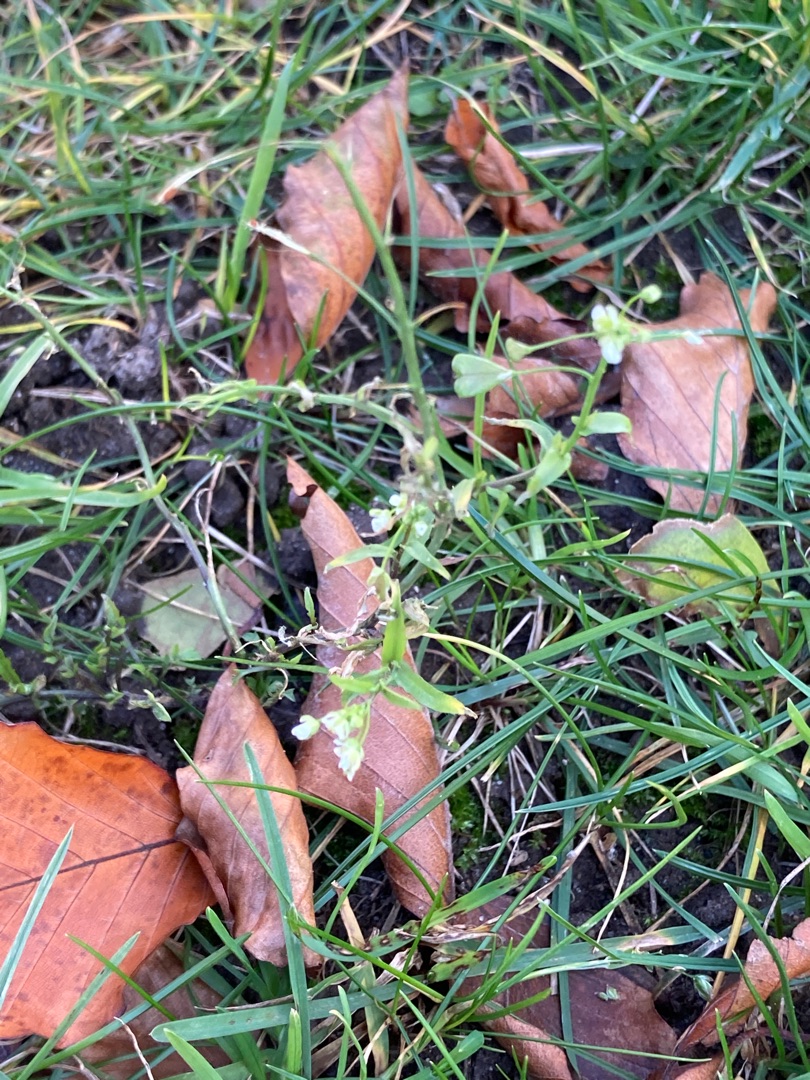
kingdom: Plantae
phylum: Tracheophyta
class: Magnoliopsida
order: Brassicales
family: Brassicaceae
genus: Capsella
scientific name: Capsella bursa-pastoris
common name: Hyrdetaske
